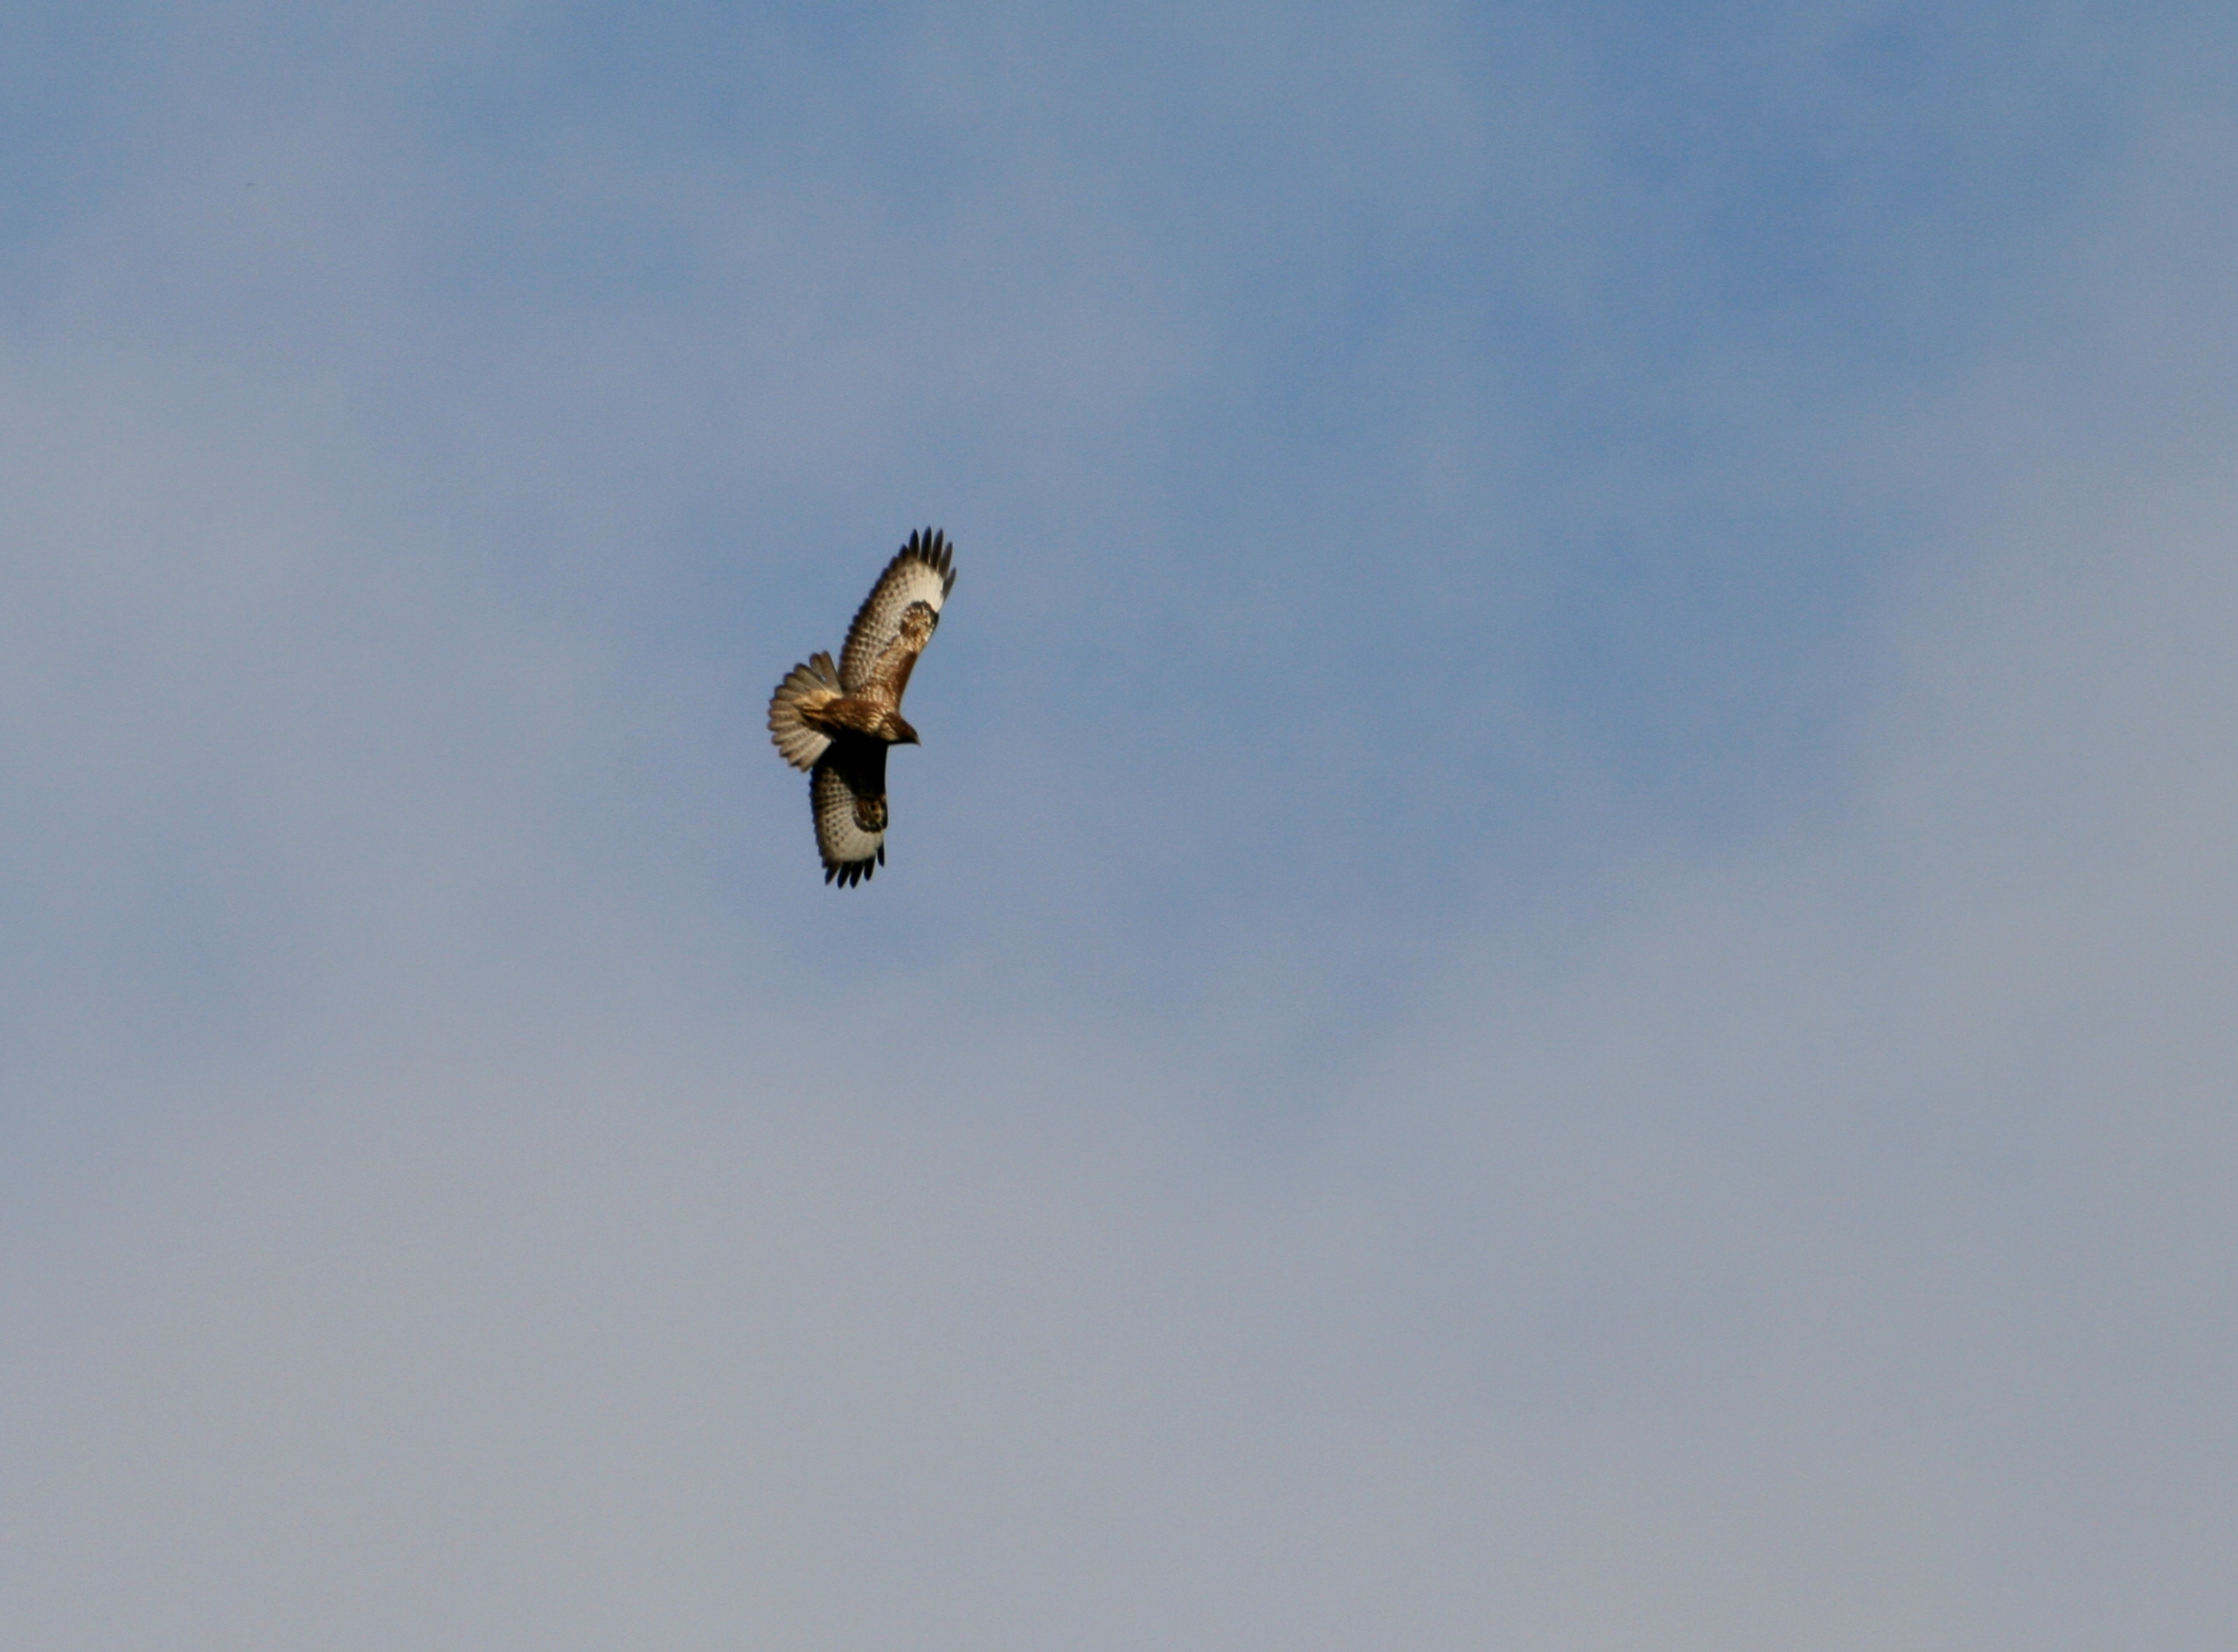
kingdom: Animalia
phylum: Chordata
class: Aves
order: Accipitriformes
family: Accipitridae
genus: Buteo
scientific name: Buteo buteo
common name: Musvåge
